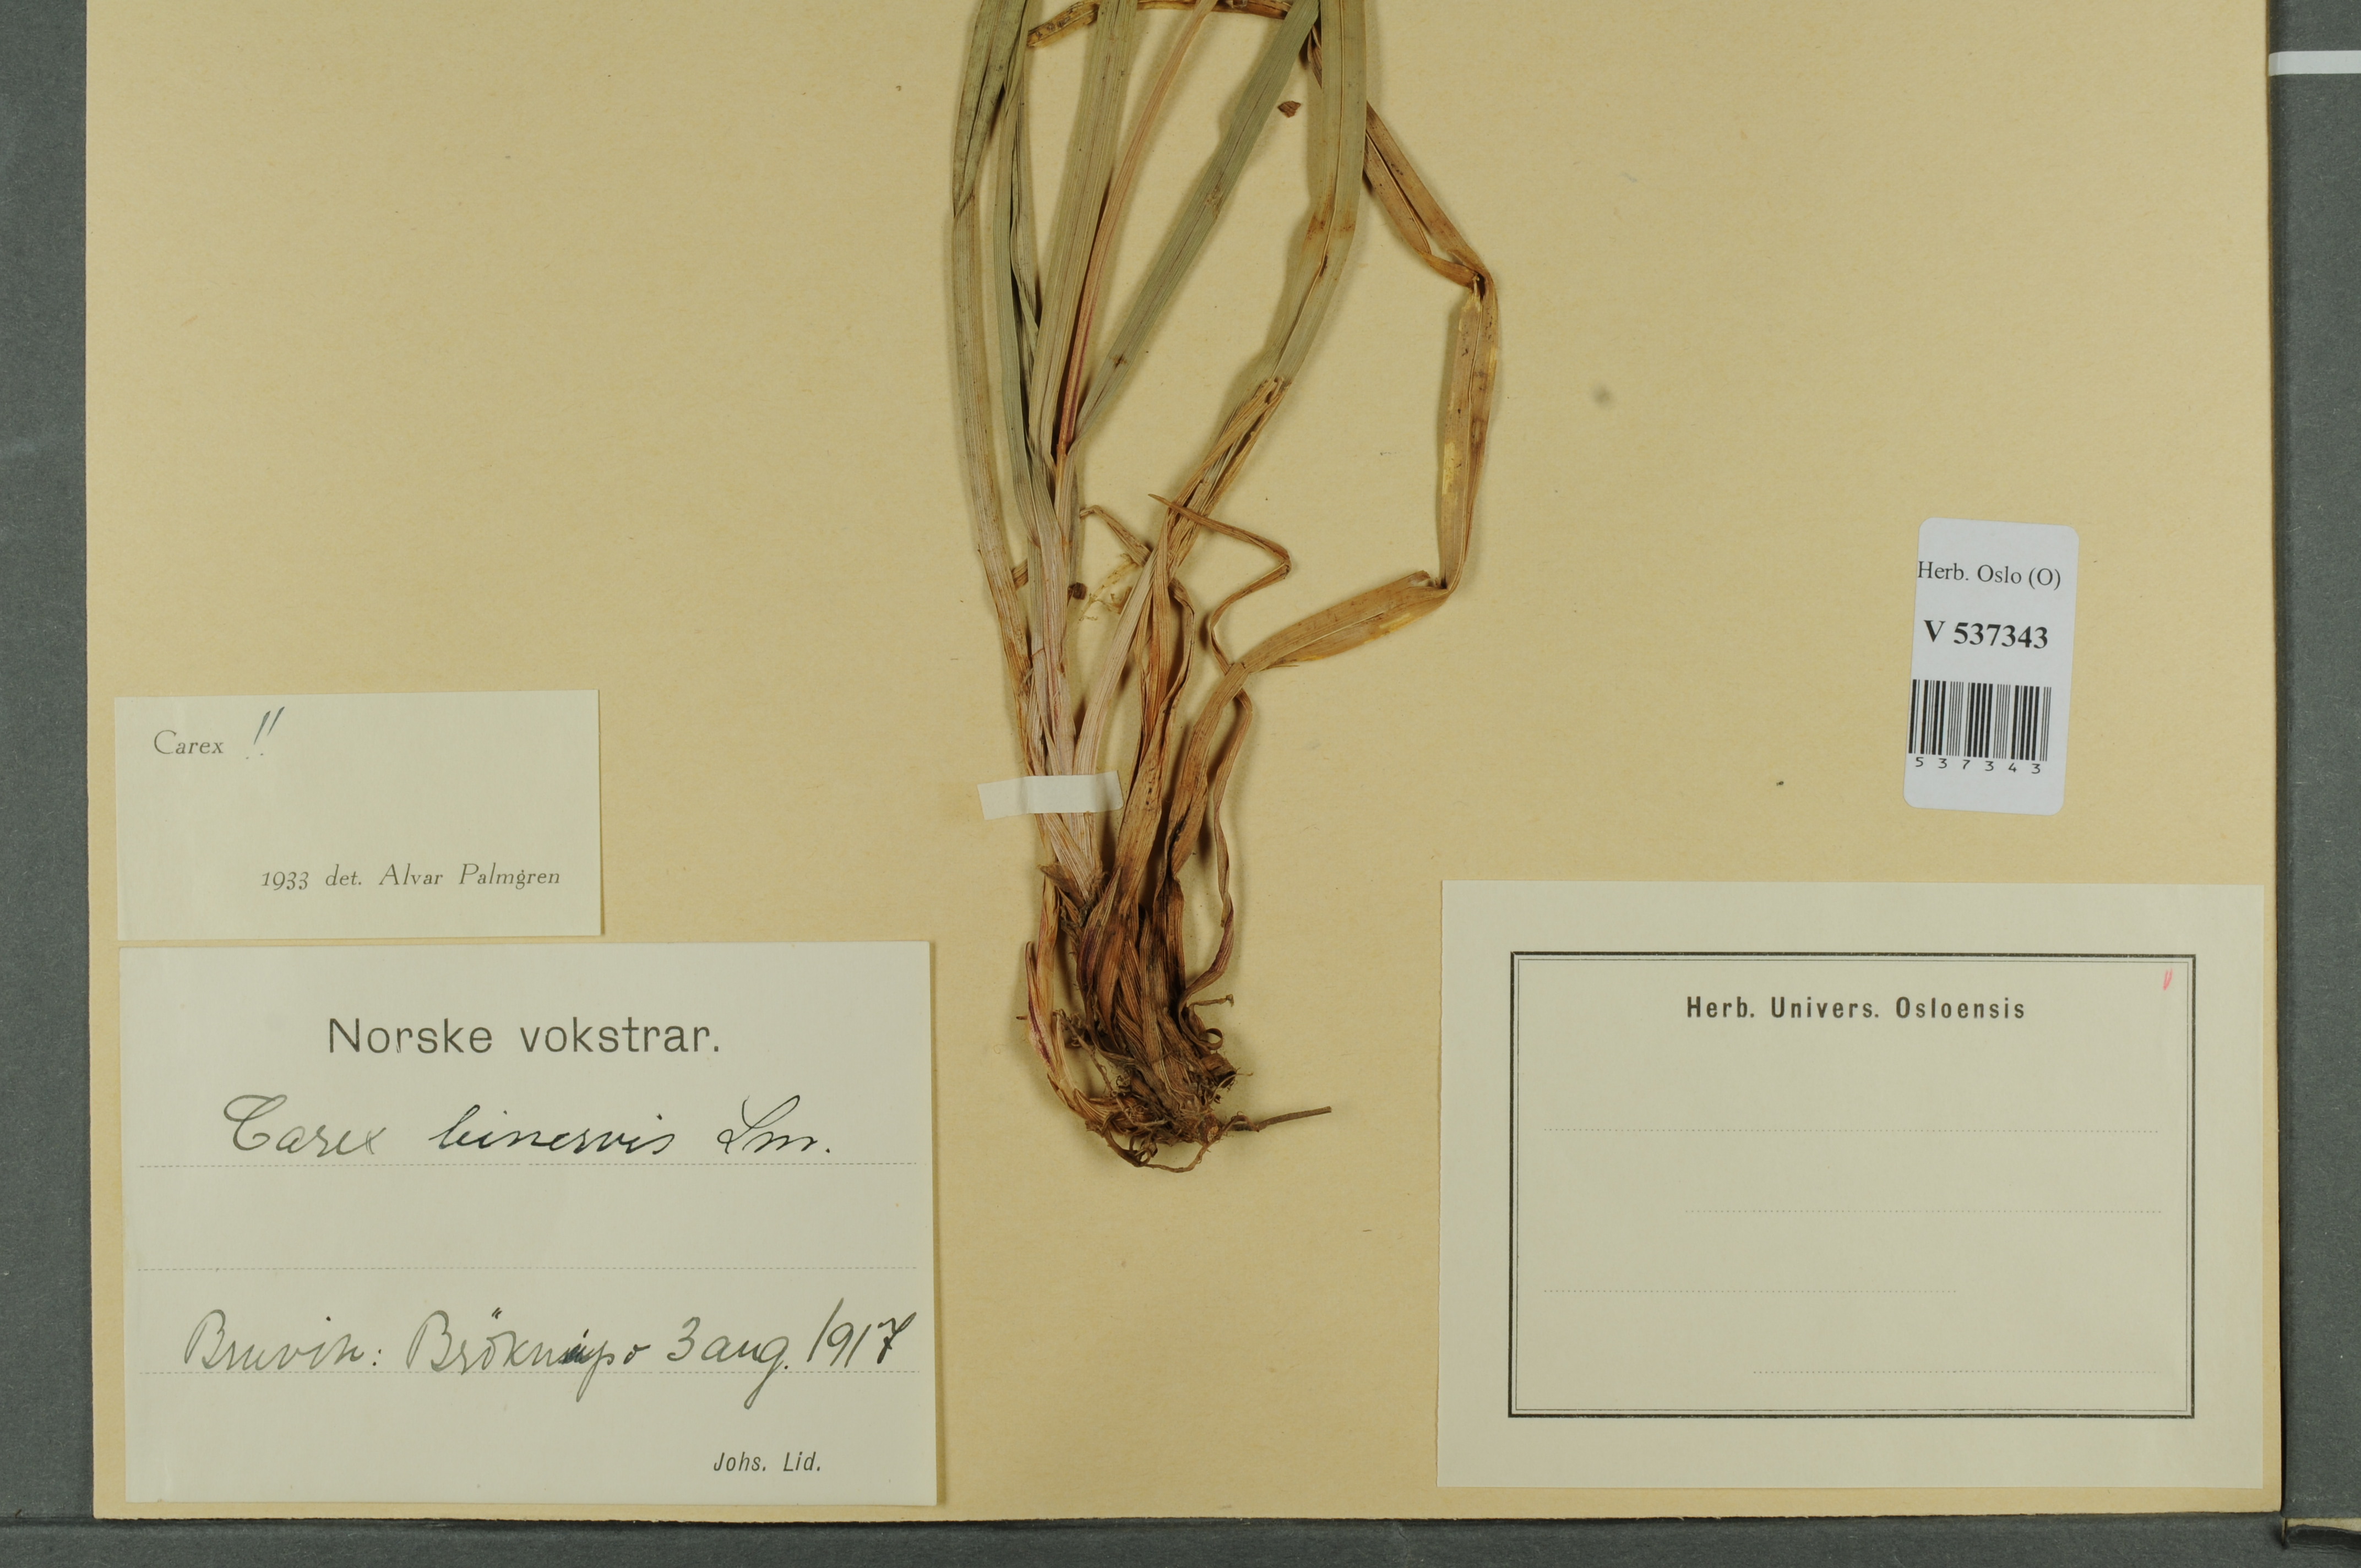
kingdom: Plantae
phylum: Tracheophyta
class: Liliopsida
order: Poales
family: Cyperaceae
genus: Carex
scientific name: Carex binervis
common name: Green-ribbed sedge
